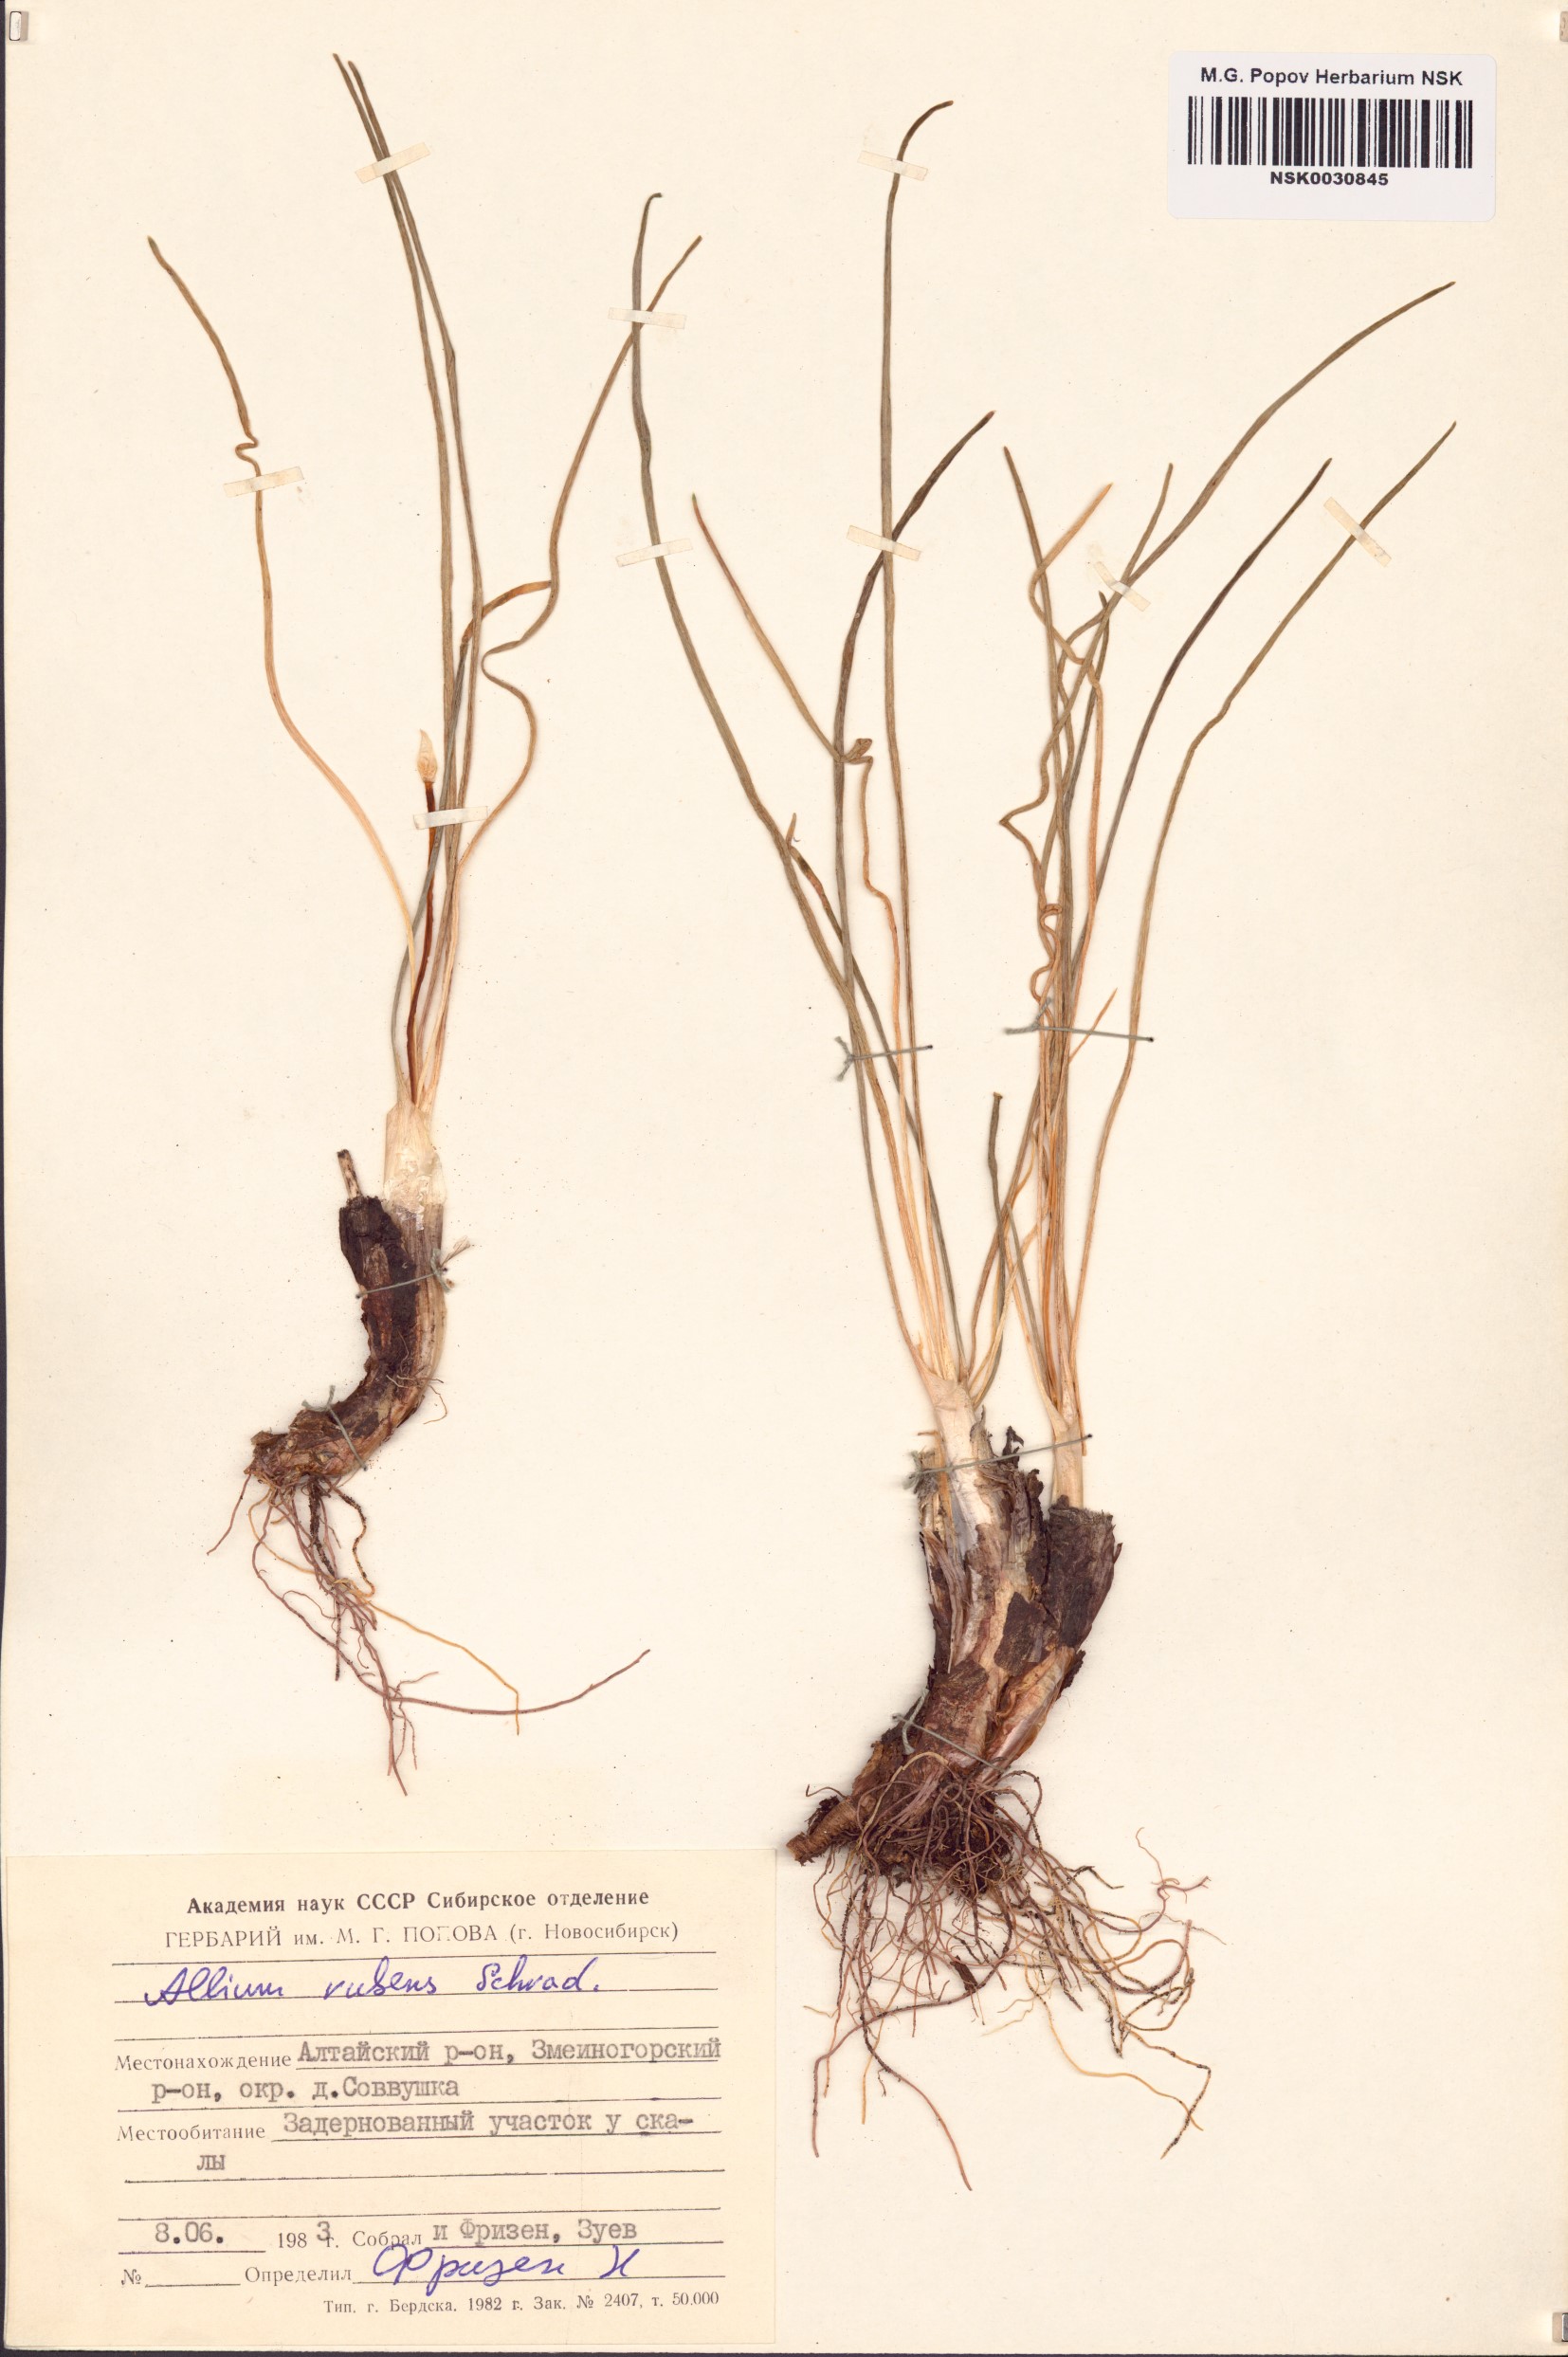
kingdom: Plantae
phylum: Tracheophyta
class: Liliopsida
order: Asparagales
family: Amaryllidaceae
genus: Allium
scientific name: Allium rubens
